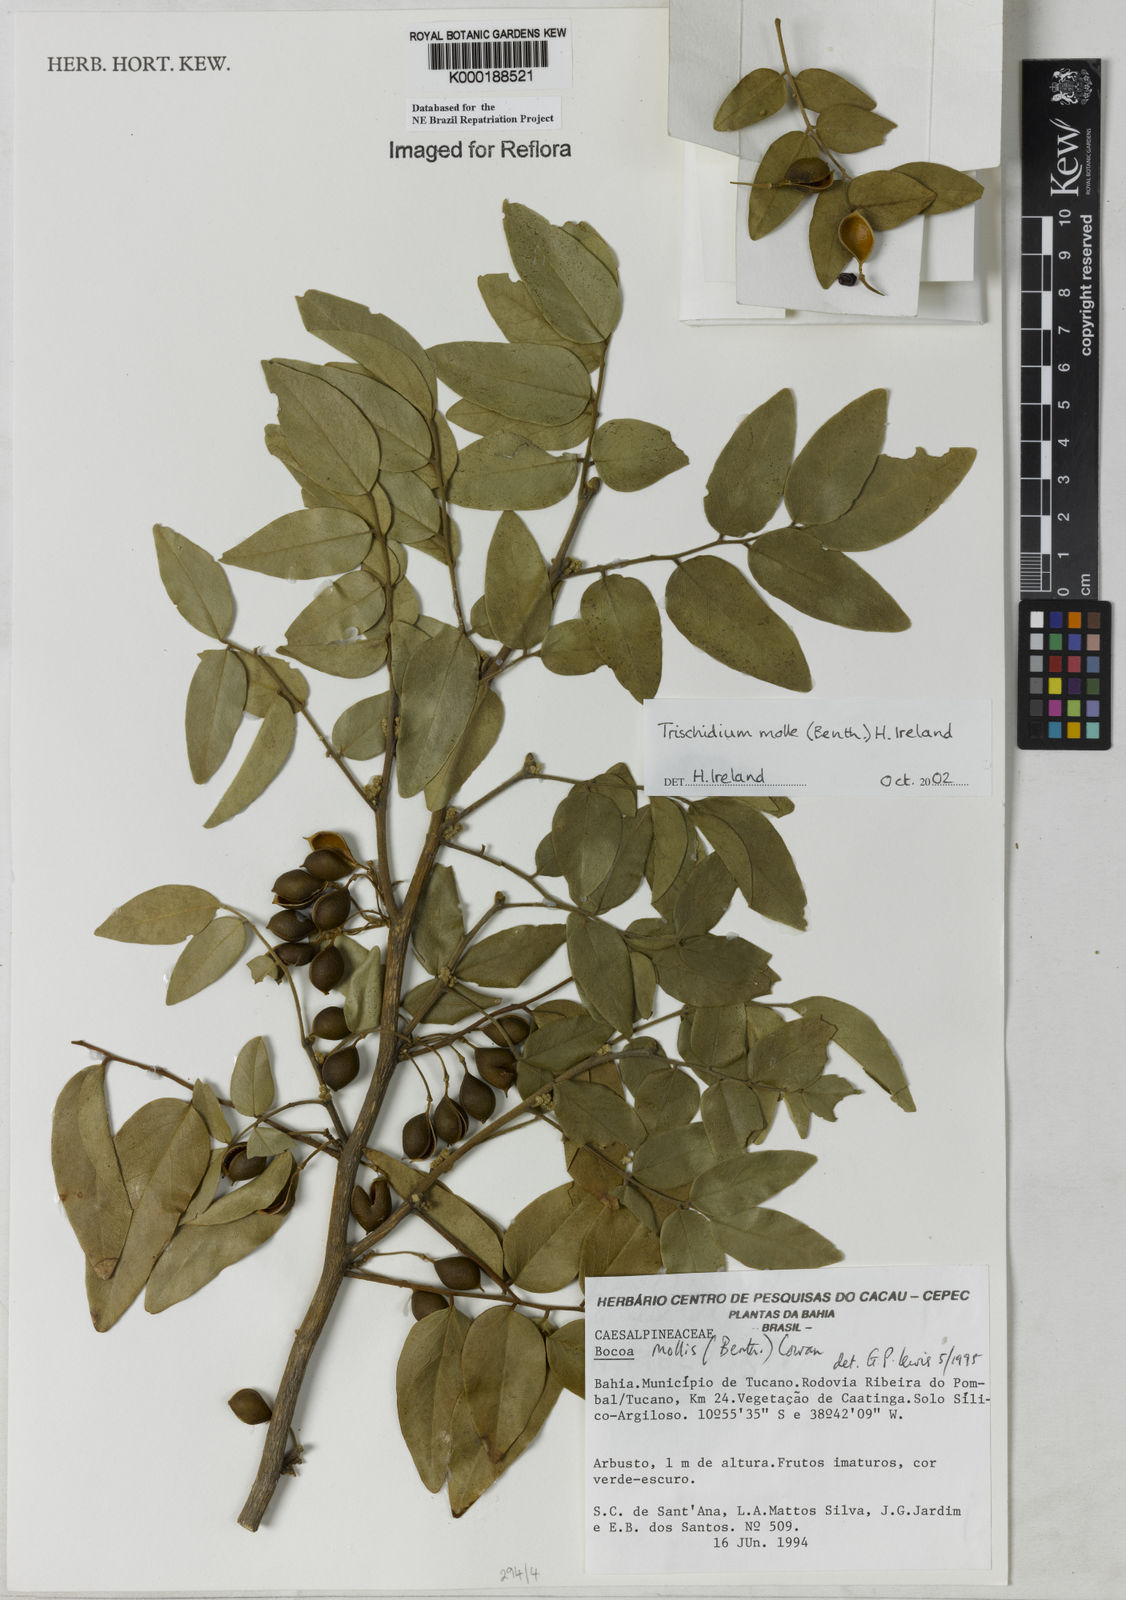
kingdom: Plantae
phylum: Tracheophyta
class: Magnoliopsida
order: Fabales
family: Fabaceae
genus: Trischidium
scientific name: Trischidium
